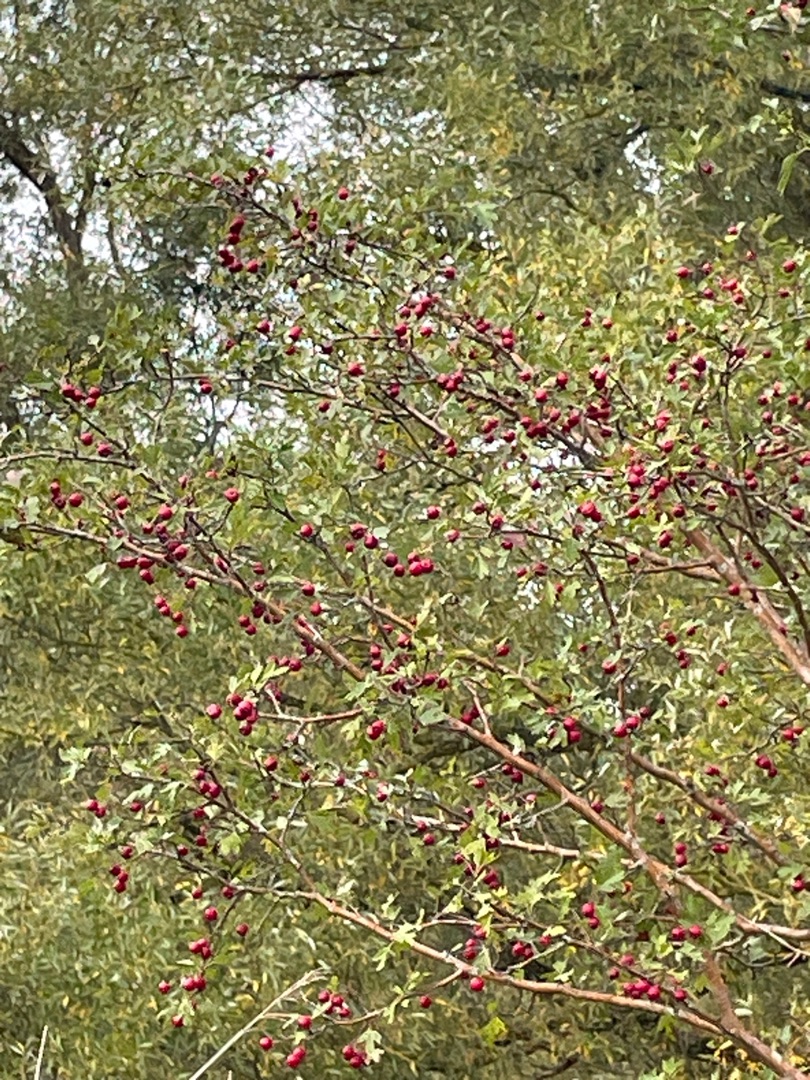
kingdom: Plantae
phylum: Tracheophyta
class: Magnoliopsida
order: Rosales
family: Rosaceae
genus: Crataegus
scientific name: Crataegus monogyna
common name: Engriflet hvidtjørn
